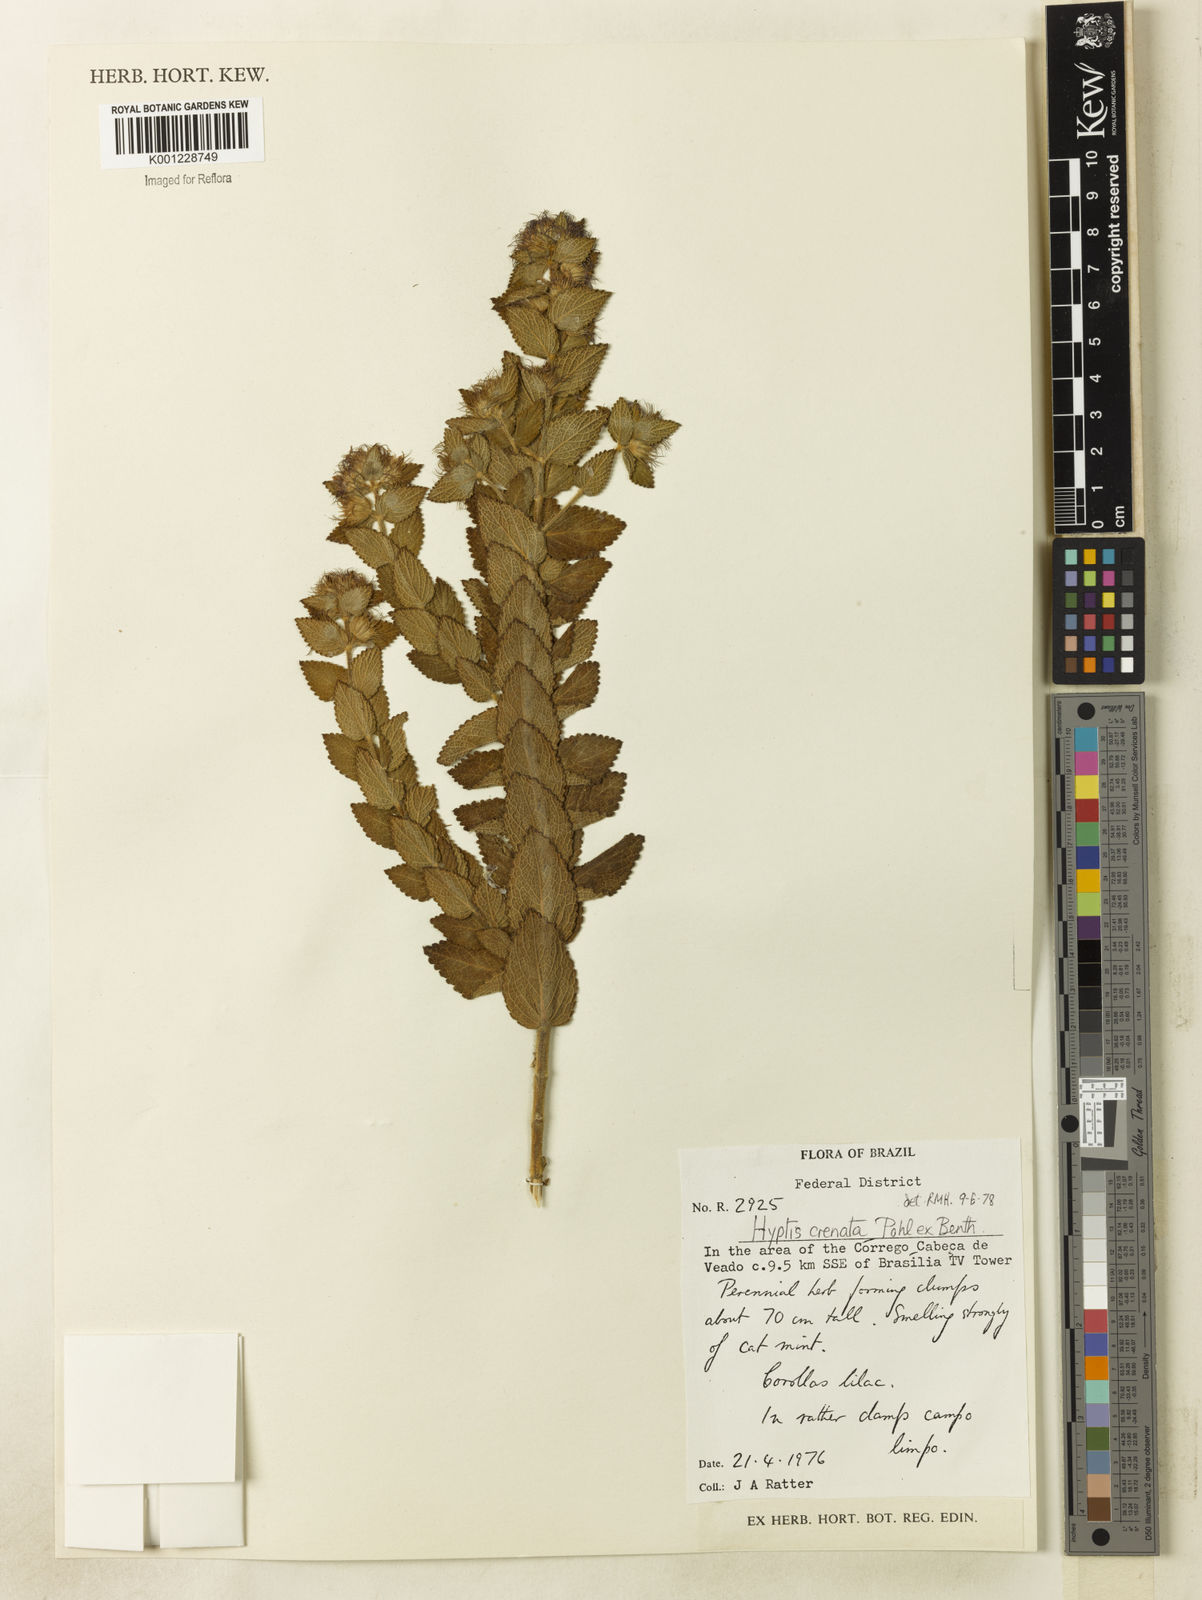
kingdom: Plantae
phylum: Tracheophyta
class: Magnoliopsida
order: Lamiales
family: Lamiaceae
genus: Hyptis
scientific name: Hyptis crenata
